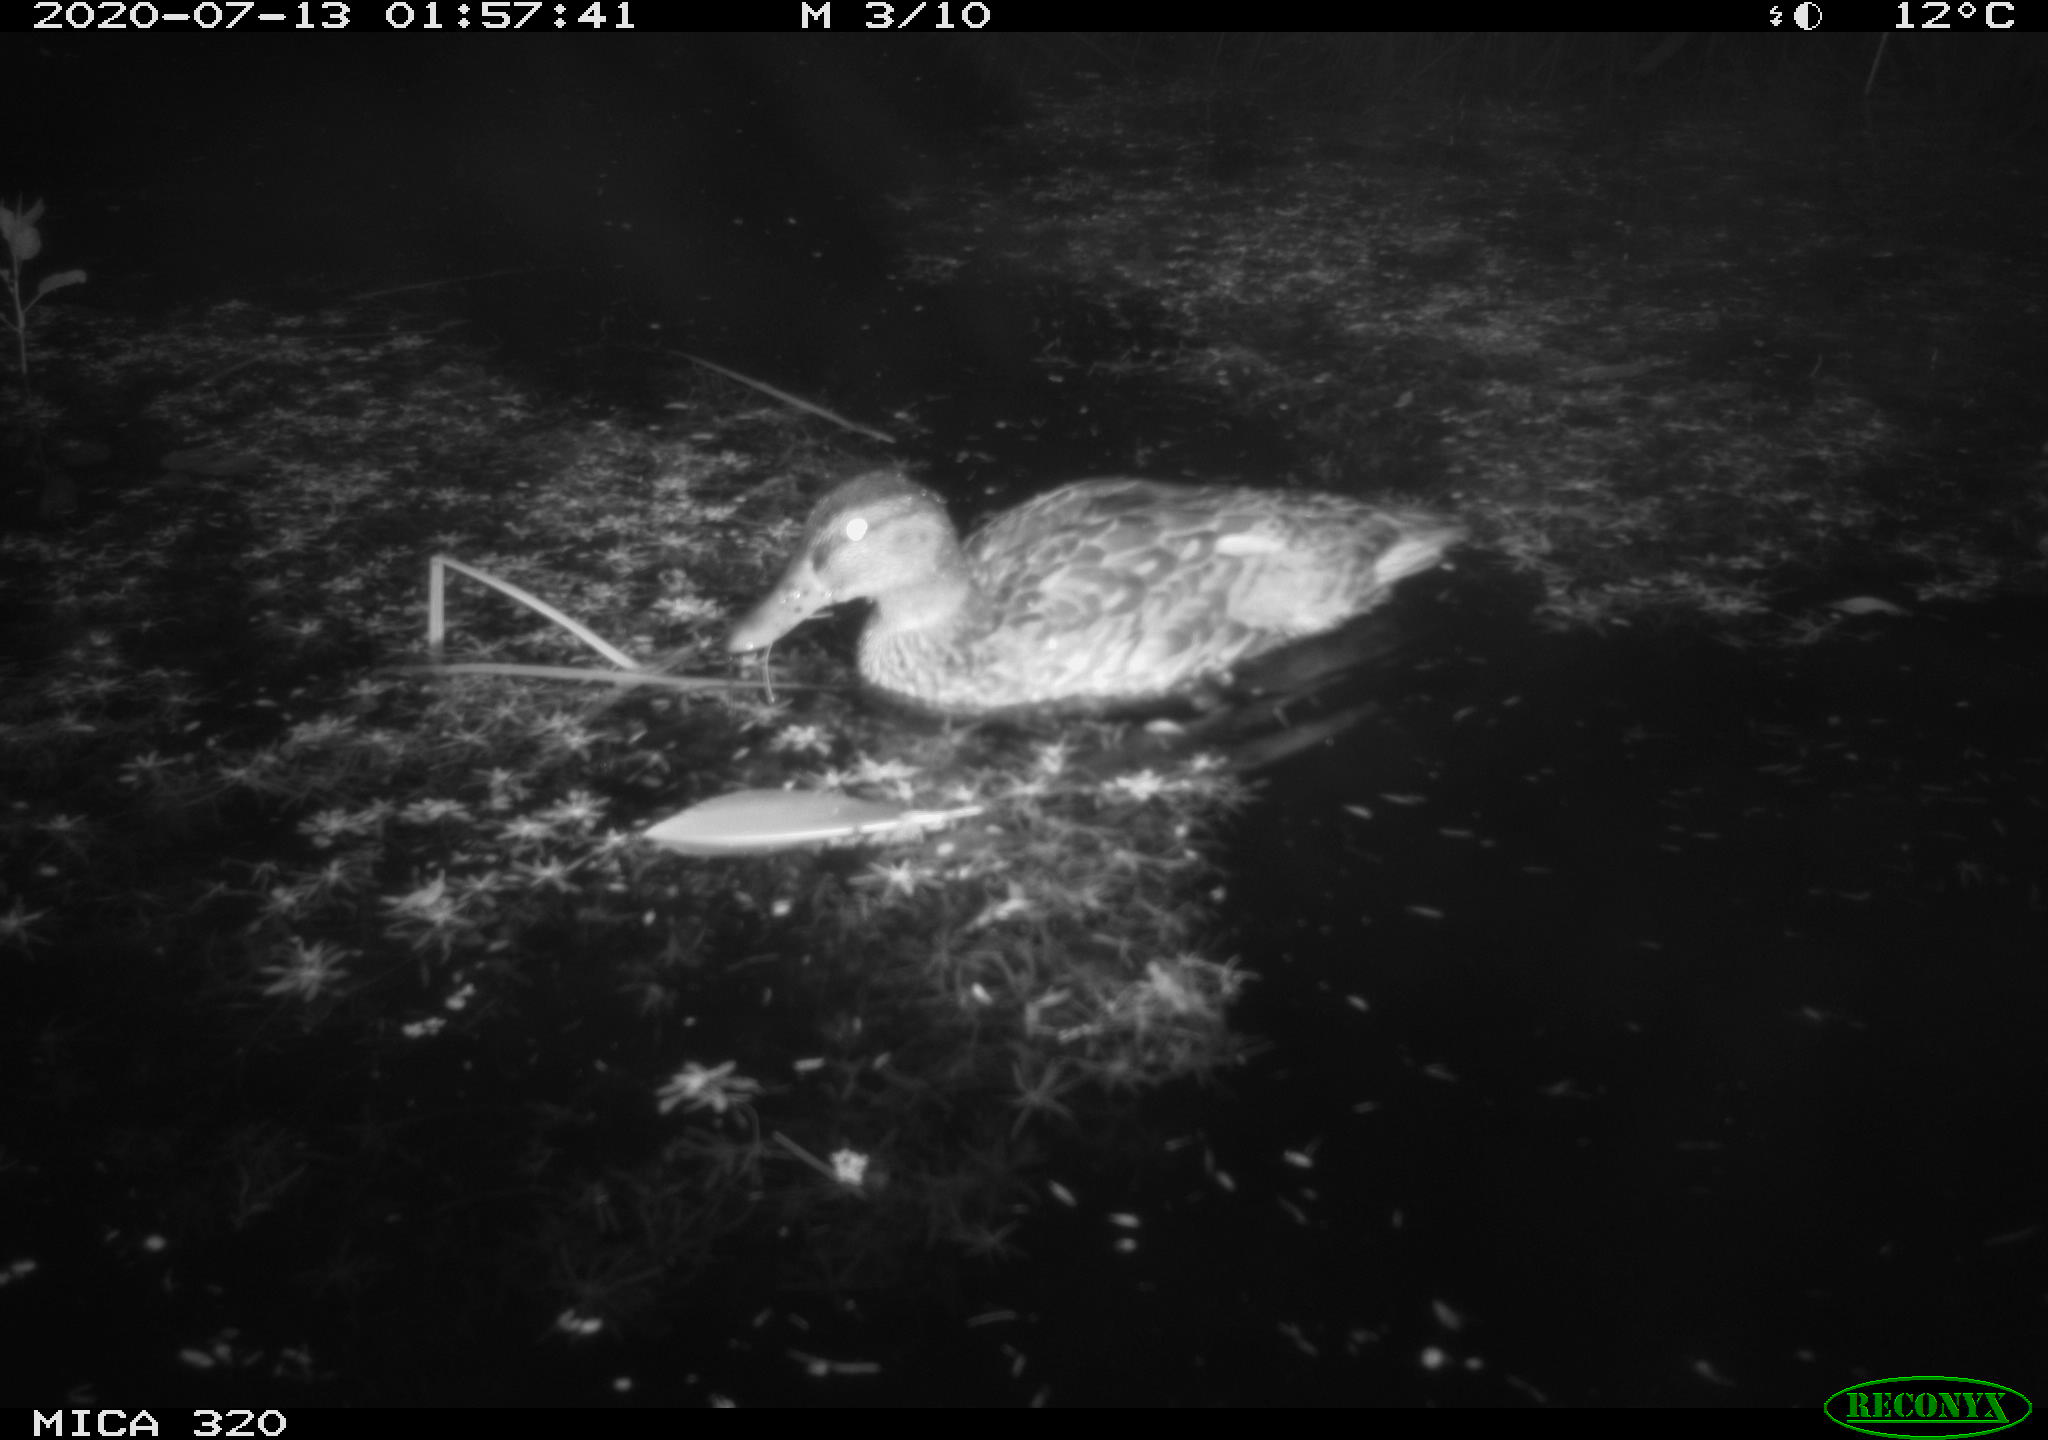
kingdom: Animalia
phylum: Chordata
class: Aves
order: Anseriformes
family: Anatidae
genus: Anas
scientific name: Anas platyrhynchos
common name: Mallard
